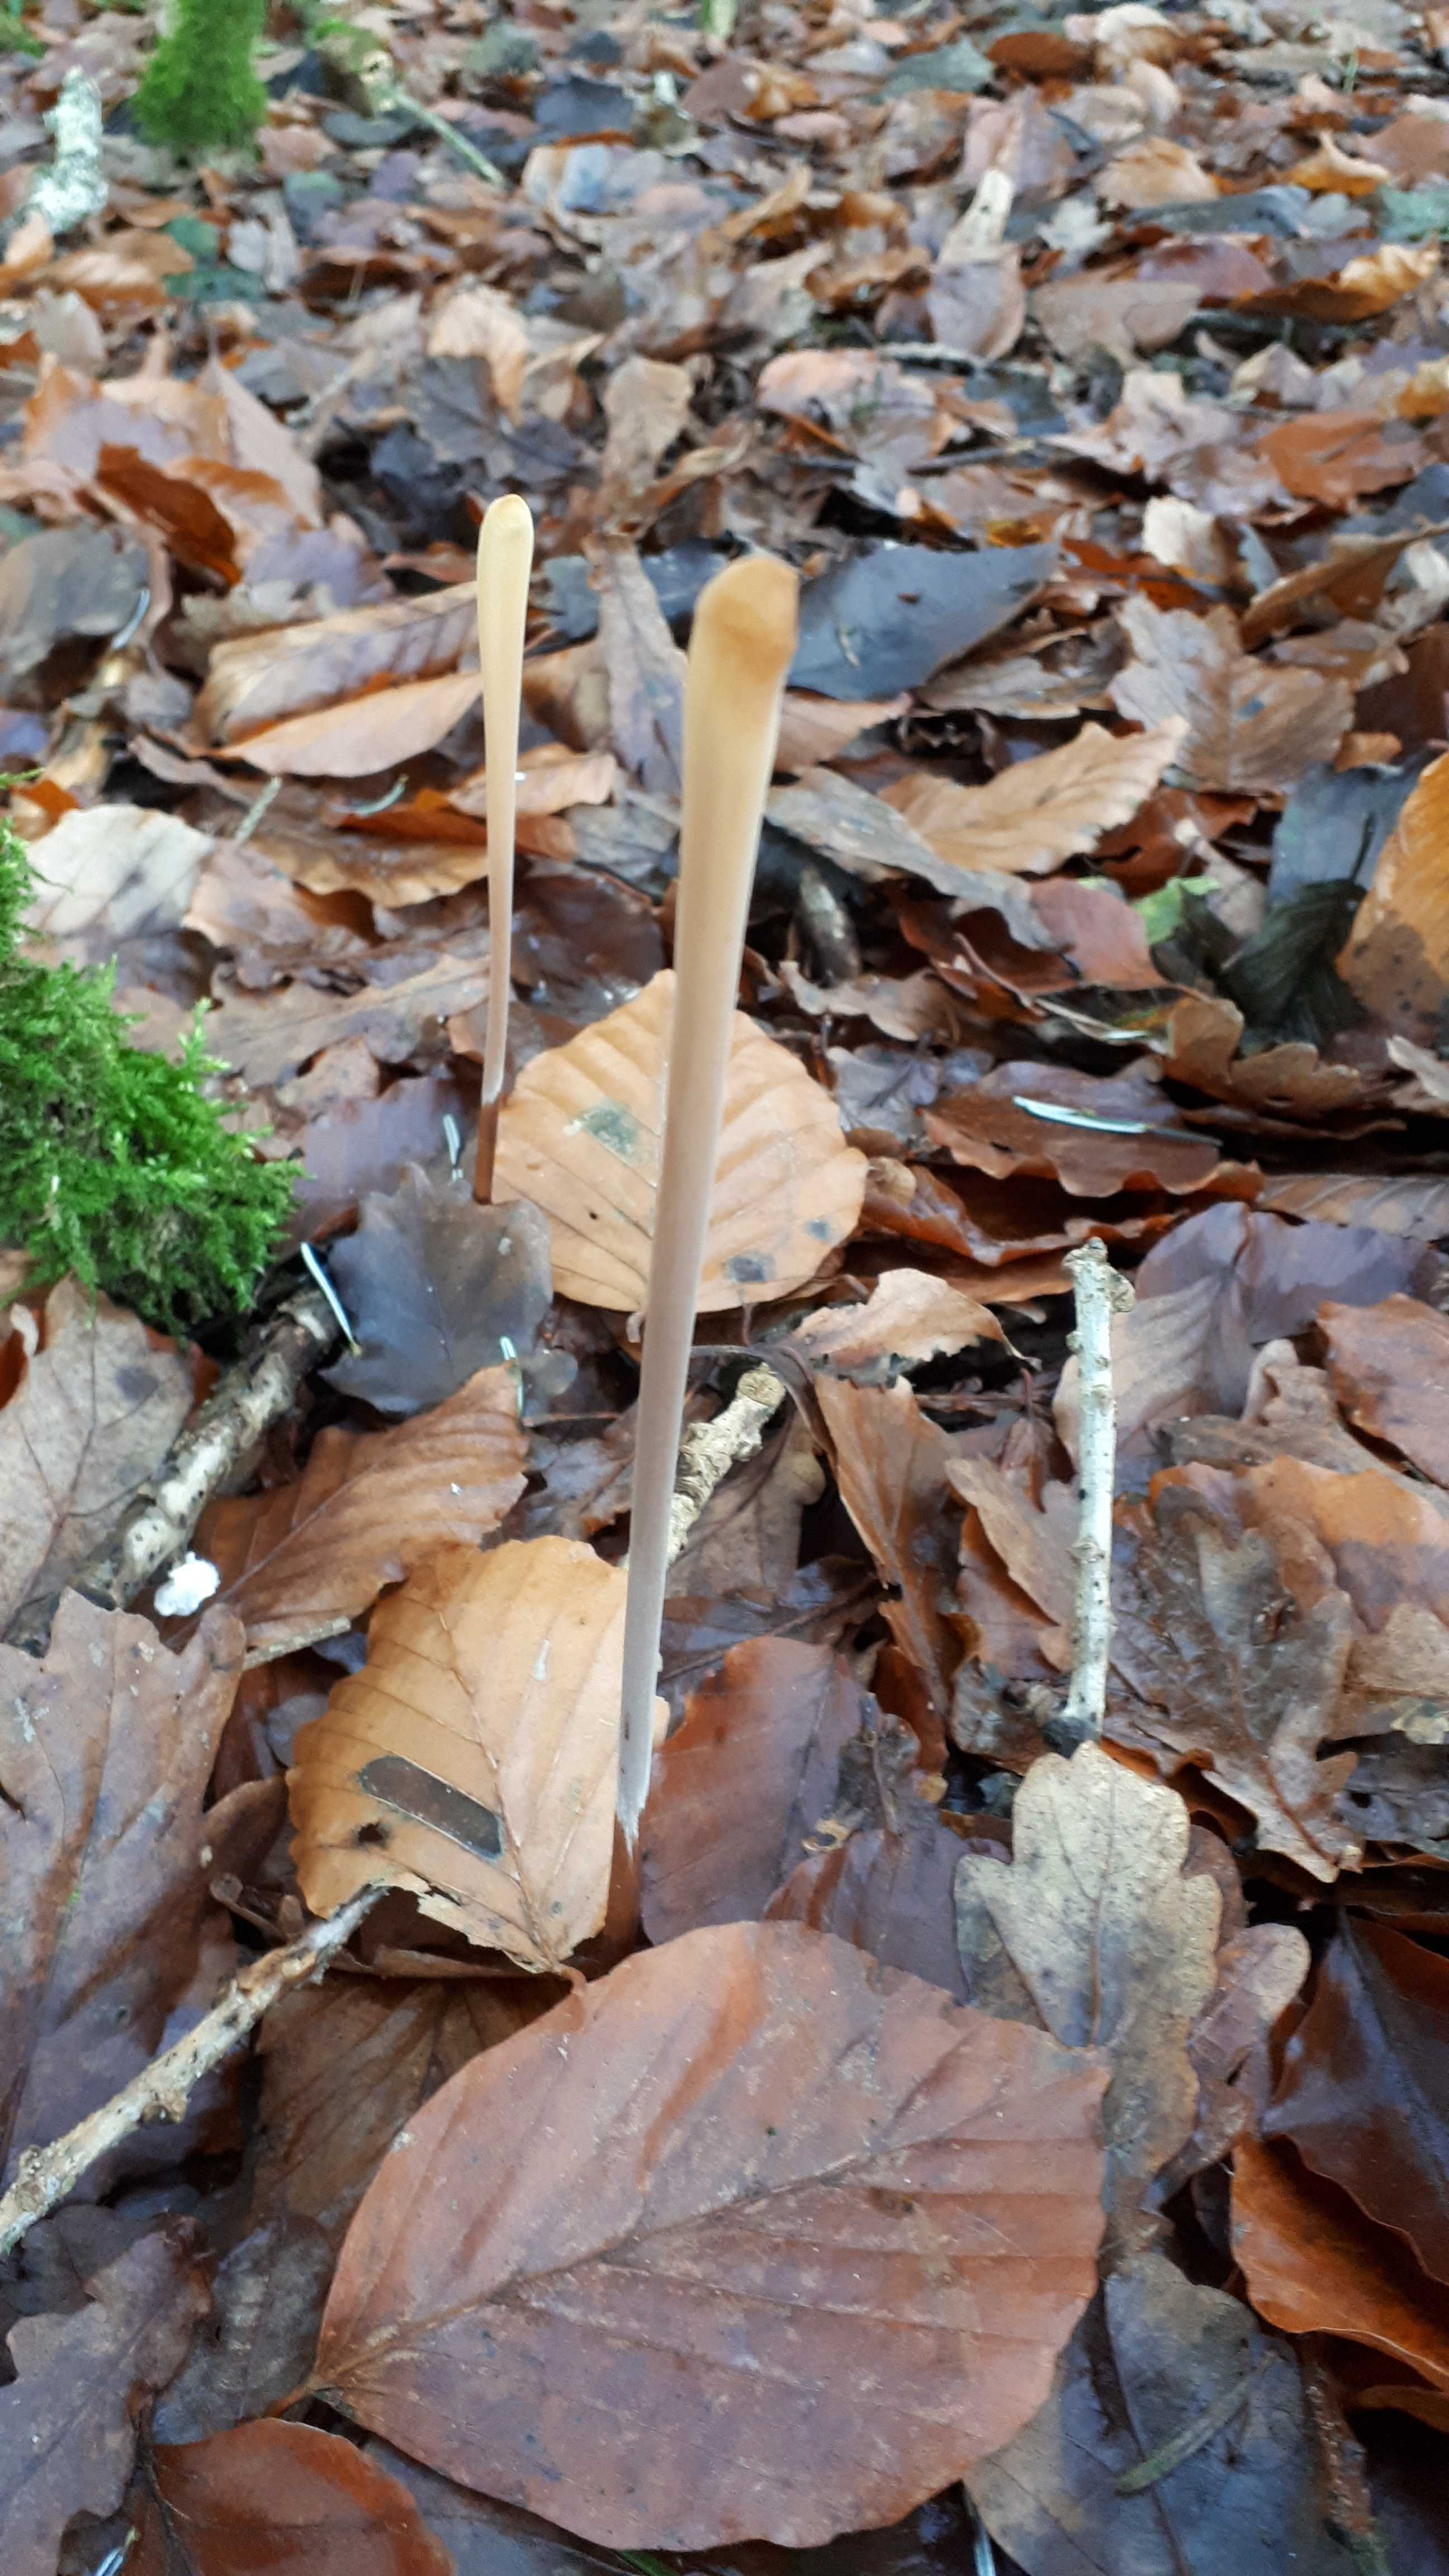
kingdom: Fungi
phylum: Basidiomycota
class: Agaricomycetes
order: Agaricales
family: Typhulaceae
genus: Typhula
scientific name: Typhula fistulosa
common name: pibet rørkølle
